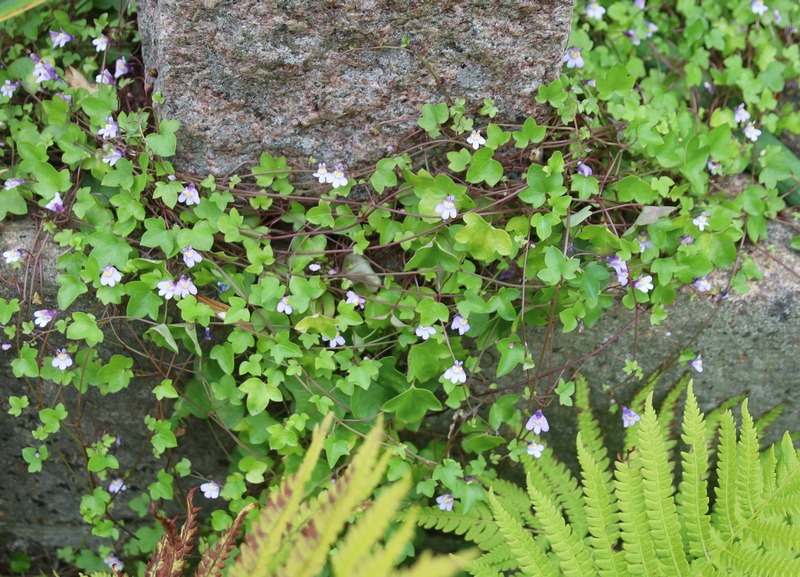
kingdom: Plantae
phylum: Tracheophyta
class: Magnoliopsida
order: Lamiales
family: Plantaginaceae
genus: Cymbalaria
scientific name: Cymbalaria muralis
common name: Vedbend-torskemund
